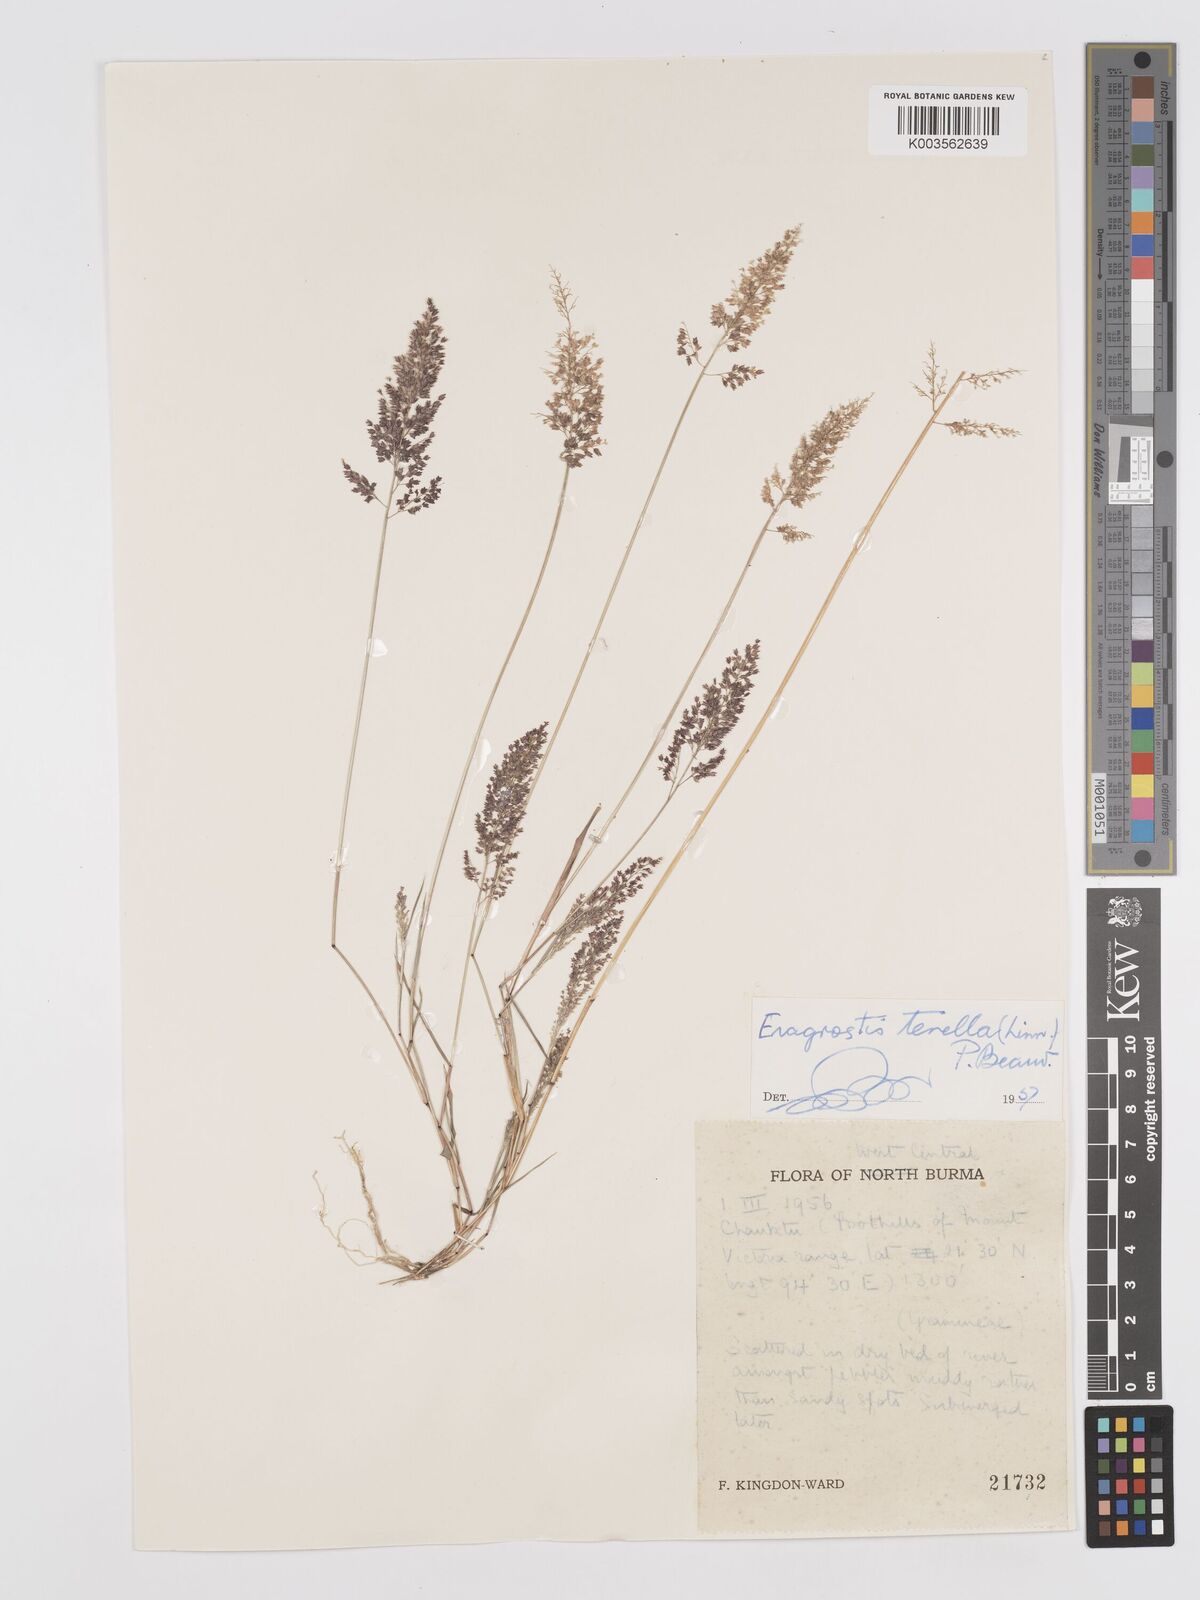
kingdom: Plantae
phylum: Tracheophyta
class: Liliopsida
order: Poales
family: Poaceae
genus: Eragrostis
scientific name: Eragrostis tenella
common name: Japanese lovegrass
